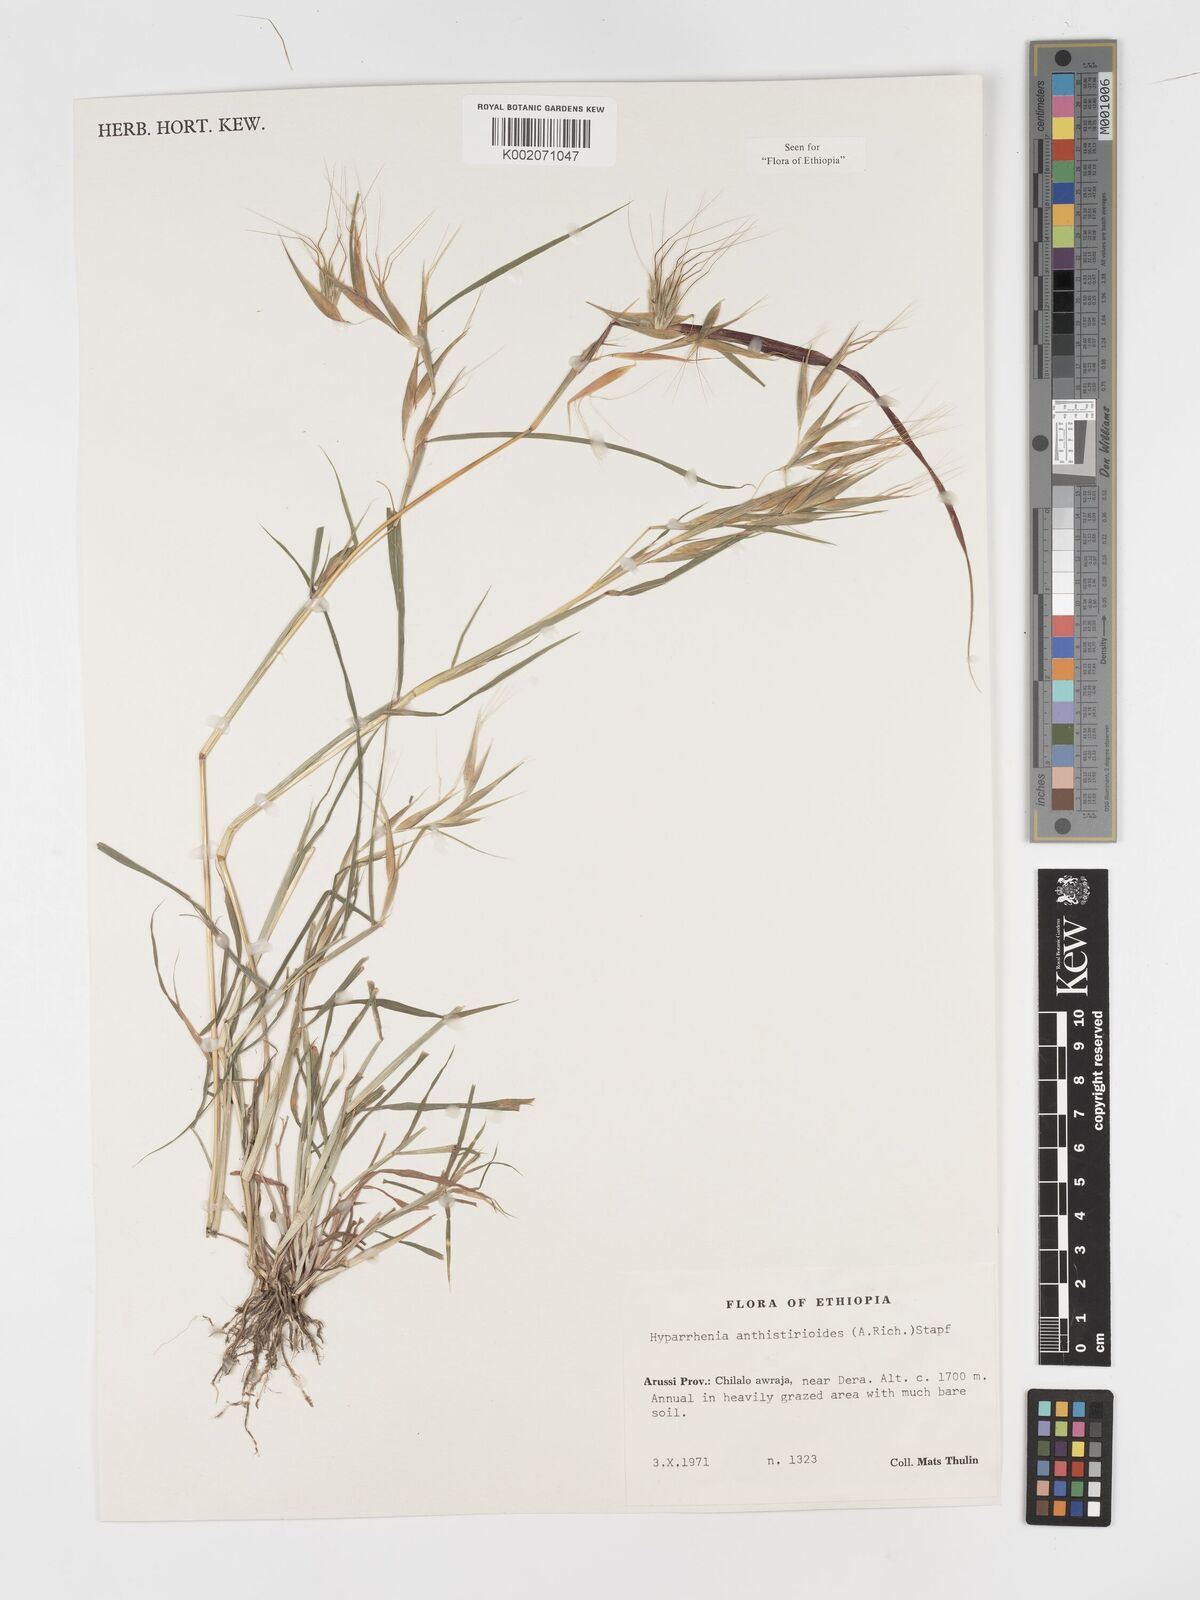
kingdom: Plantae
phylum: Tracheophyta
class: Liliopsida
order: Poales
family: Poaceae
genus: Hyparrhenia
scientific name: Hyparrhenia anthistirioides
